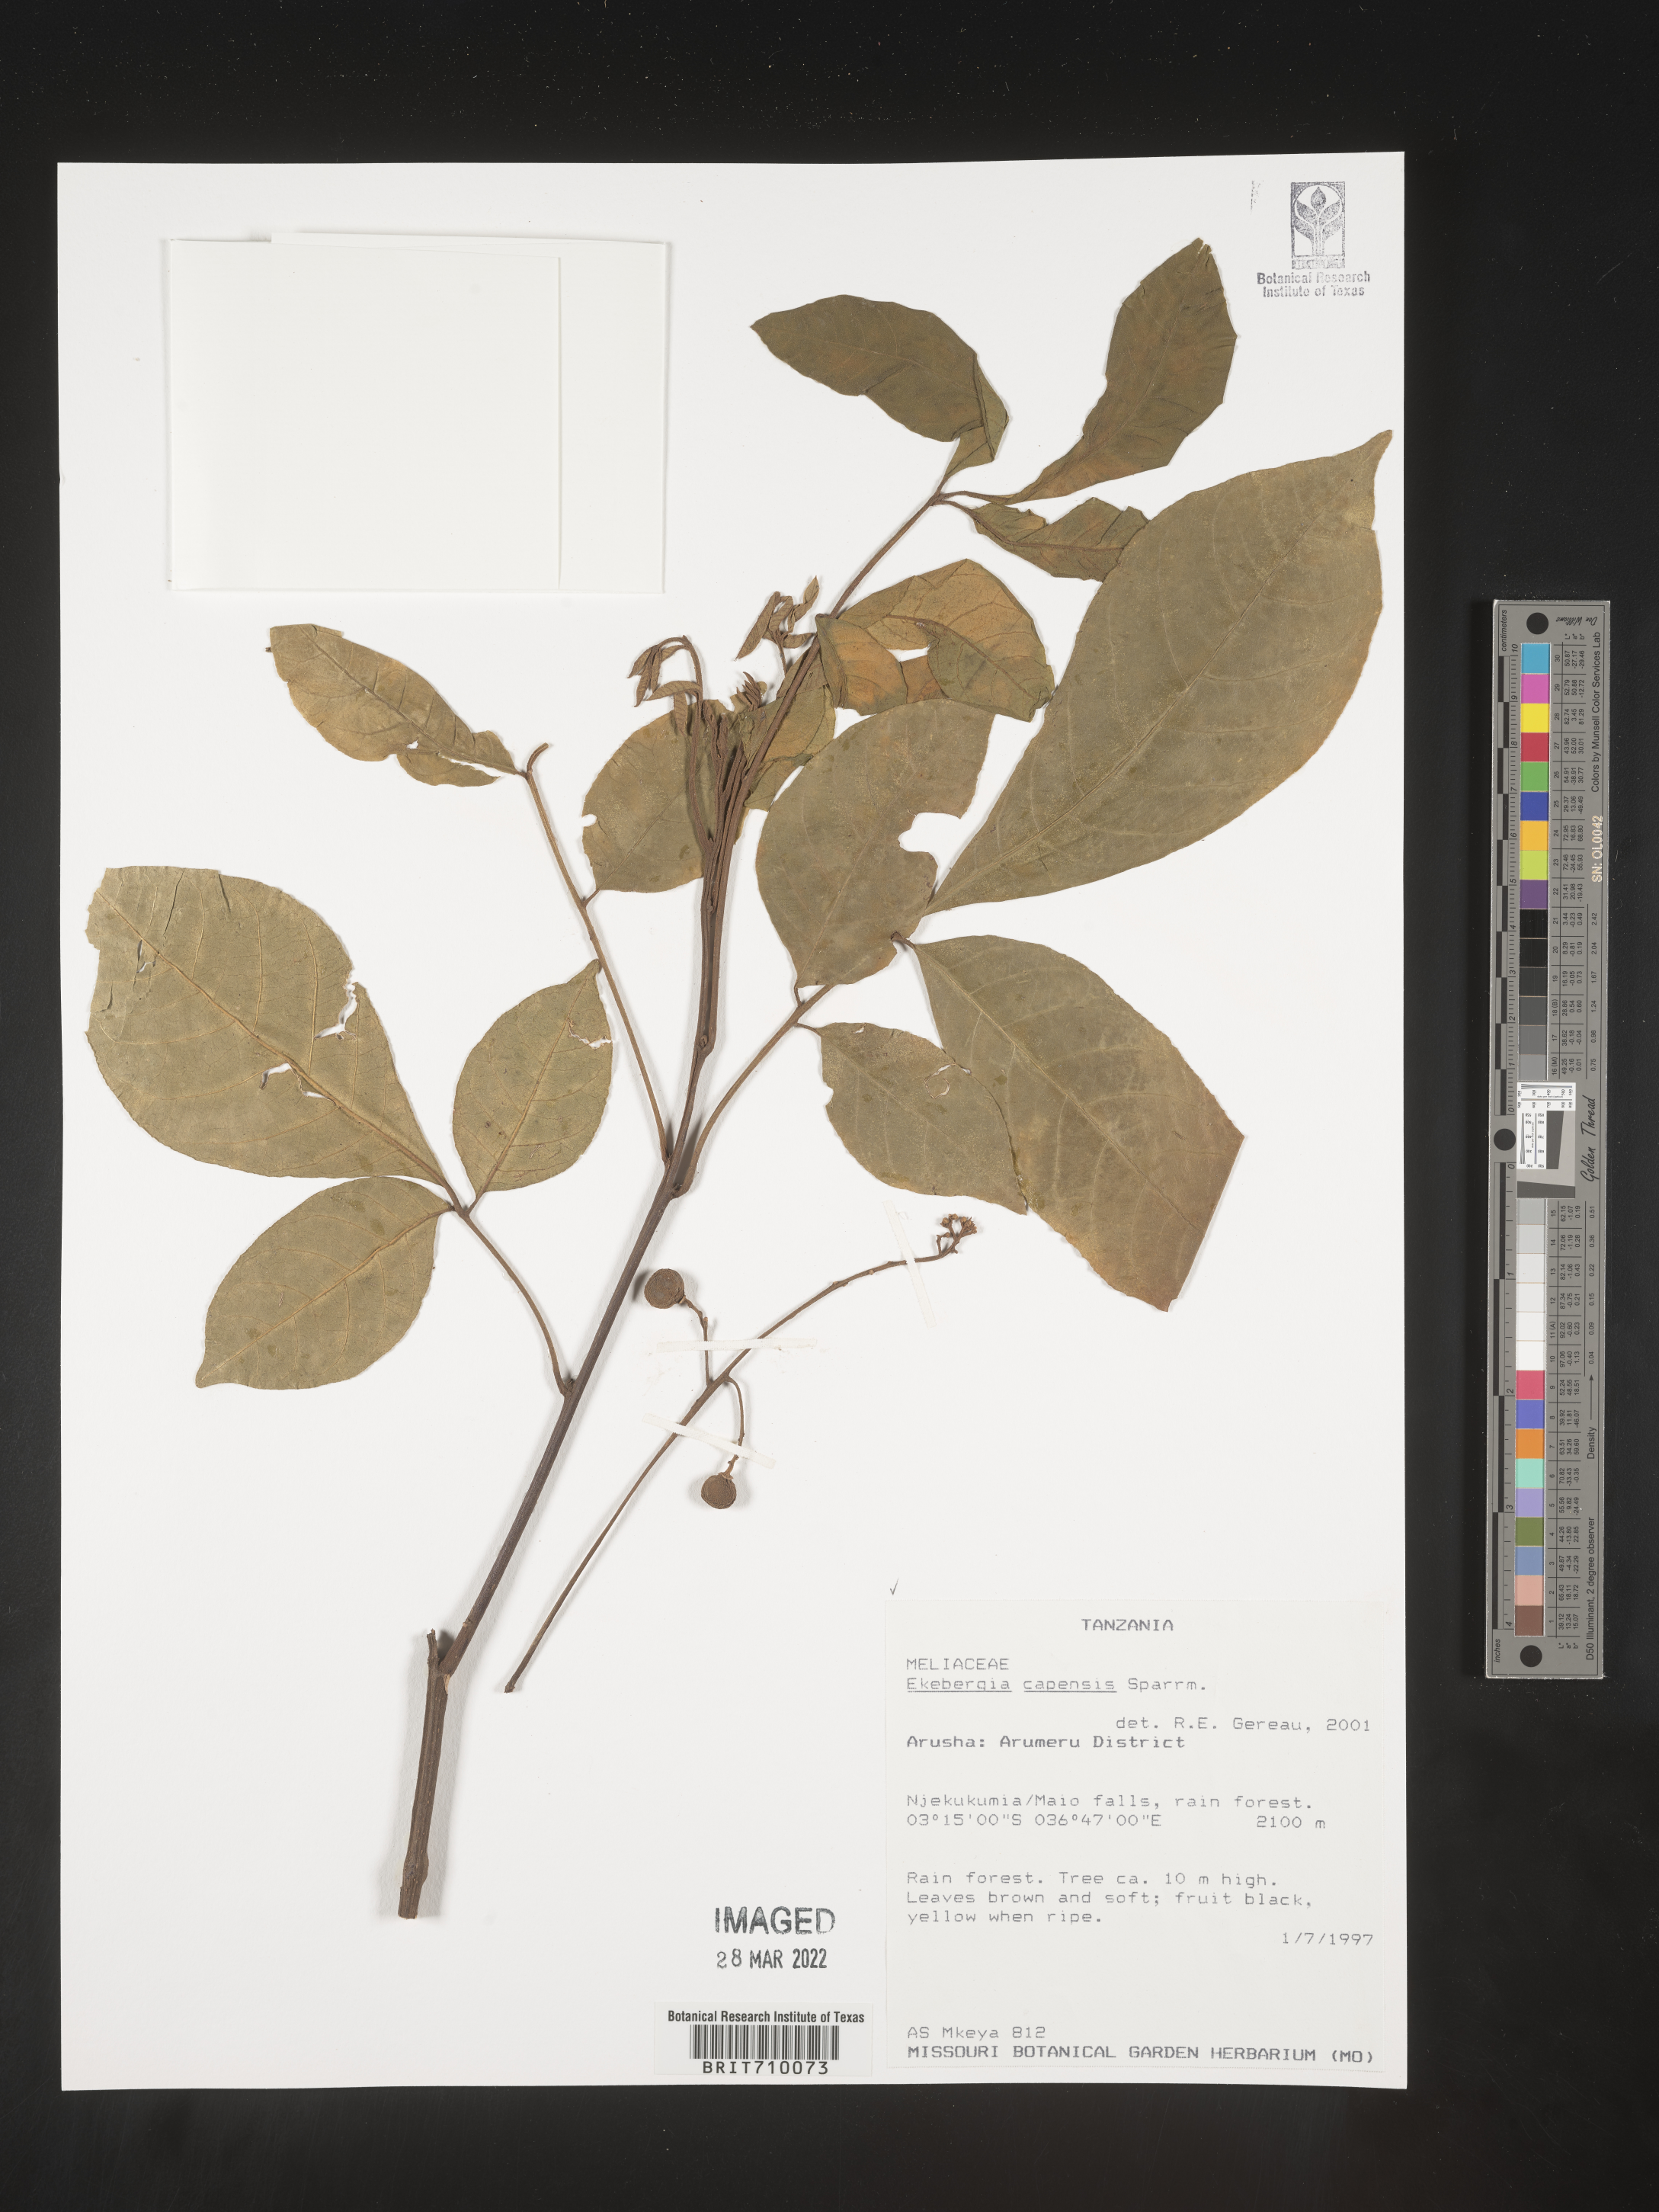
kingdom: Plantae
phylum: Tracheophyta
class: Magnoliopsida
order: Sapindales
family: Meliaceae
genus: Ekebergia
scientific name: Ekebergia
